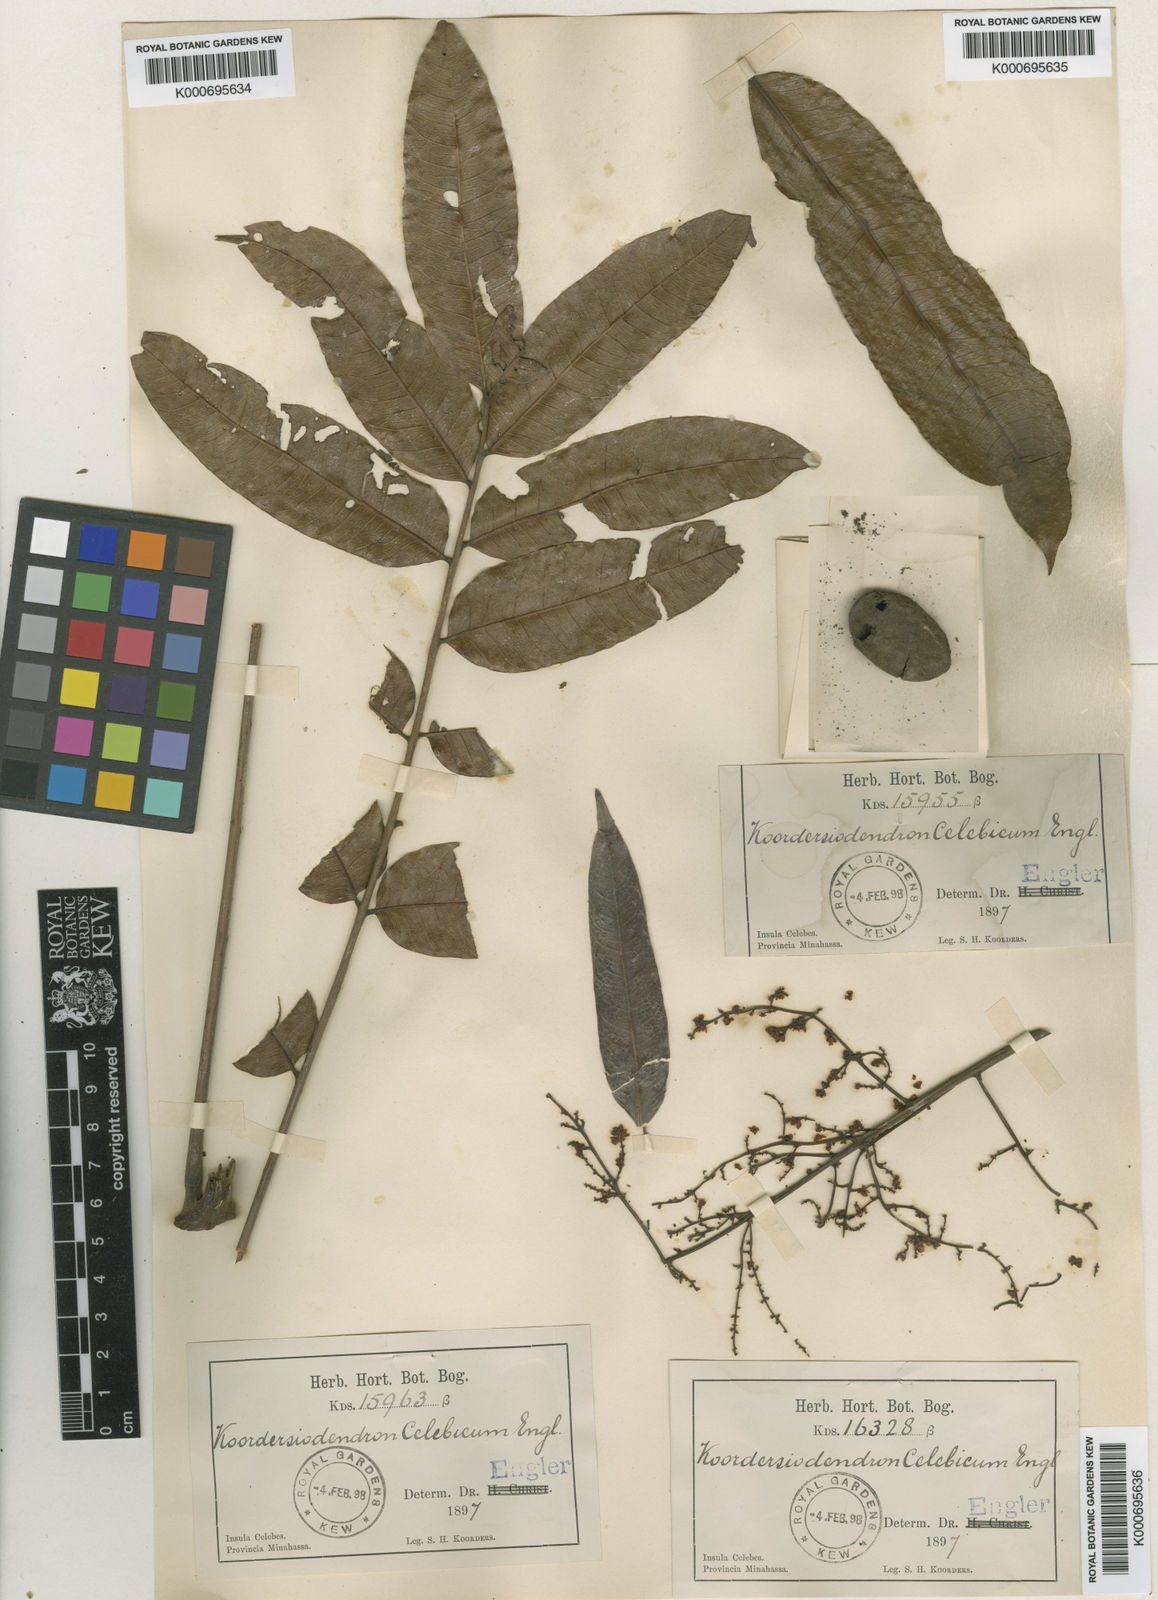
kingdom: Plantae
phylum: Tracheophyta
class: Magnoliopsida
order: Sapindales
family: Anacardiaceae
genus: Koordersiodendron
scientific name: Koordersiodendron pinnatum
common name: Ranggu
